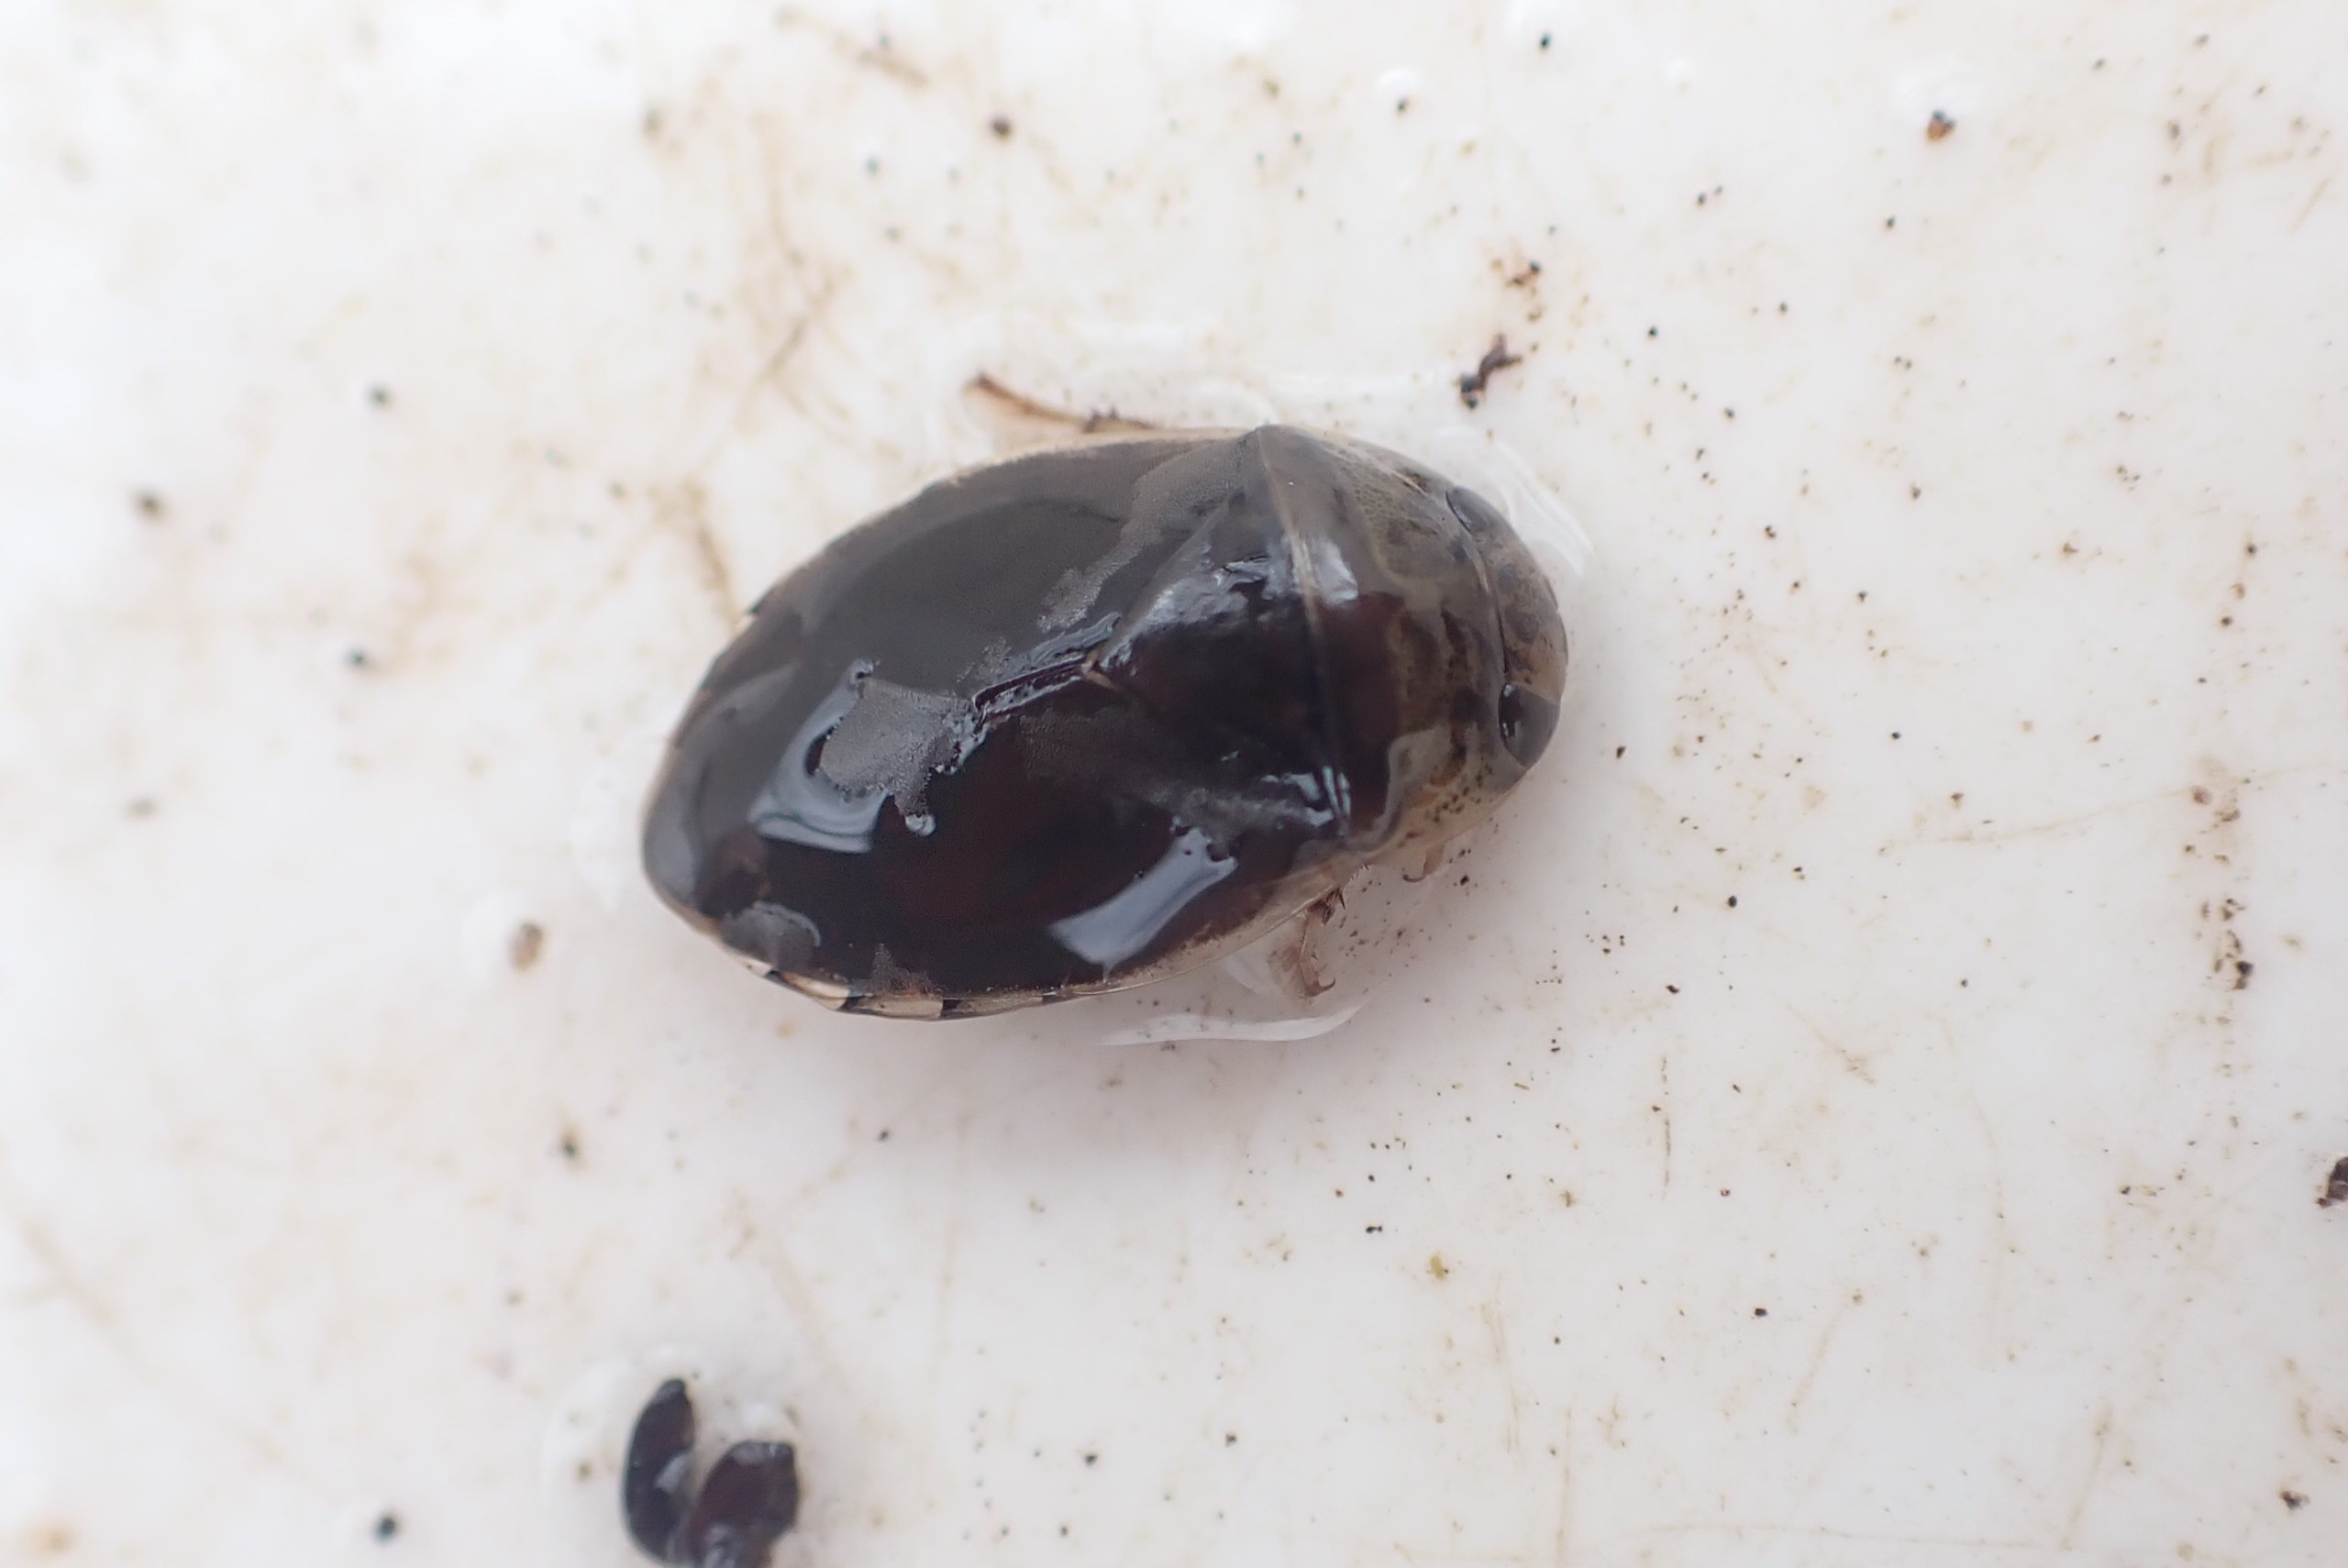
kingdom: Animalia
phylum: Arthropoda
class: Insecta
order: Hemiptera
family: Naucoridae
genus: Ilyocoris
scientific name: Ilyocoris cimicoides
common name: Vandrøver
